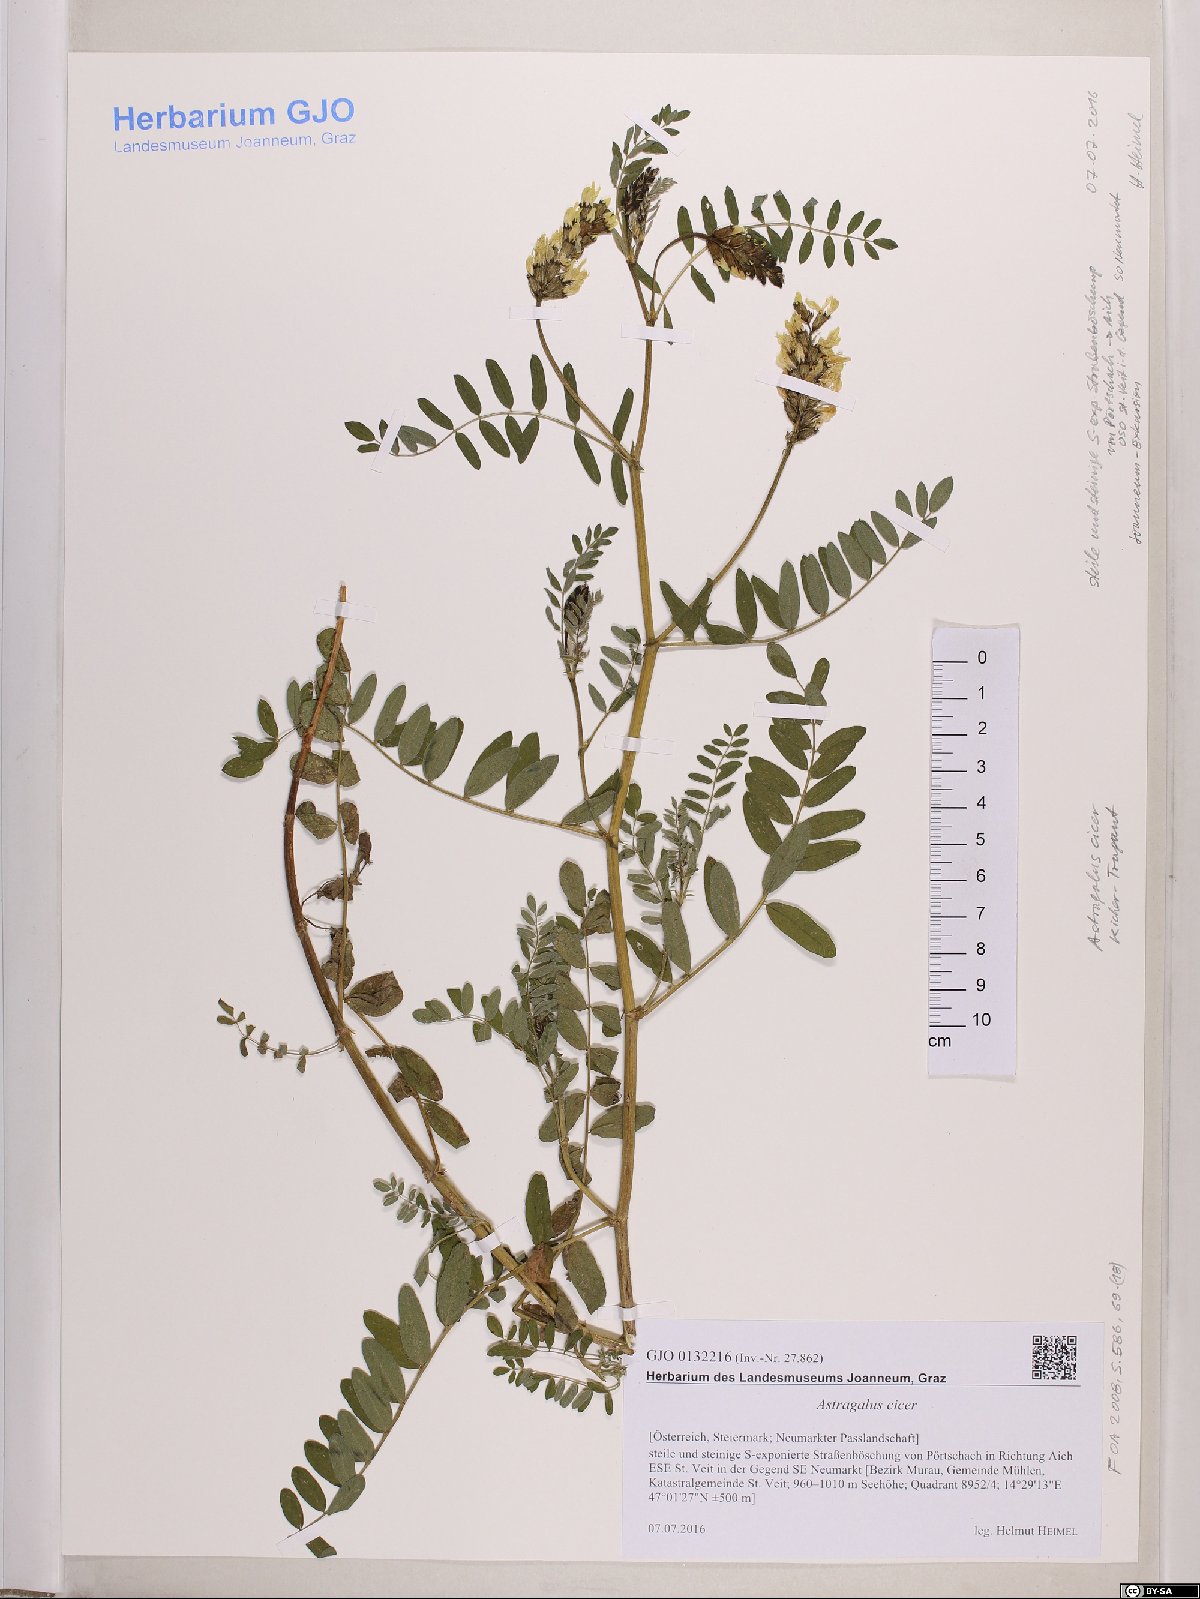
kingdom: Plantae
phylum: Tracheophyta
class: Magnoliopsida
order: Fabales
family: Fabaceae
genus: Astragalus
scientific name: Astragalus cicer
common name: Chick-pea milk-vetch
